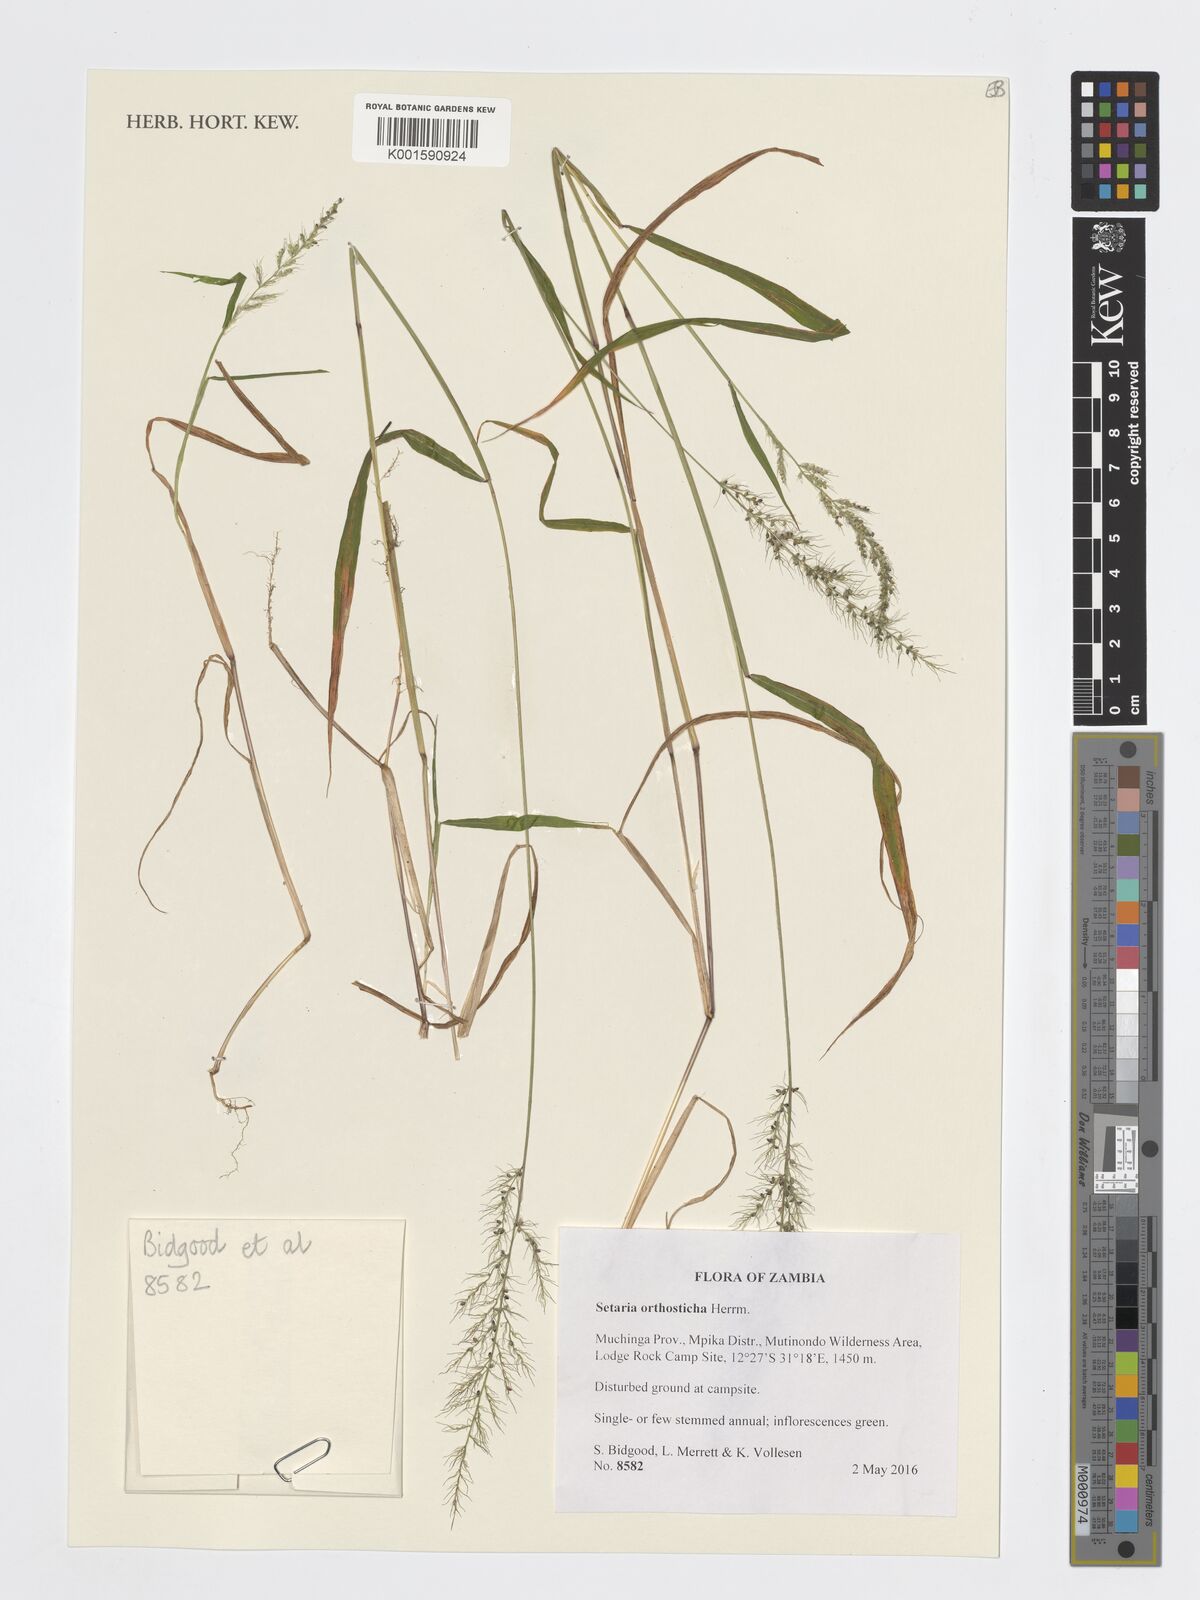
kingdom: Plantae
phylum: Tracheophyta
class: Liliopsida
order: Poales
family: Poaceae
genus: Setaria
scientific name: Setaria orthosticha
